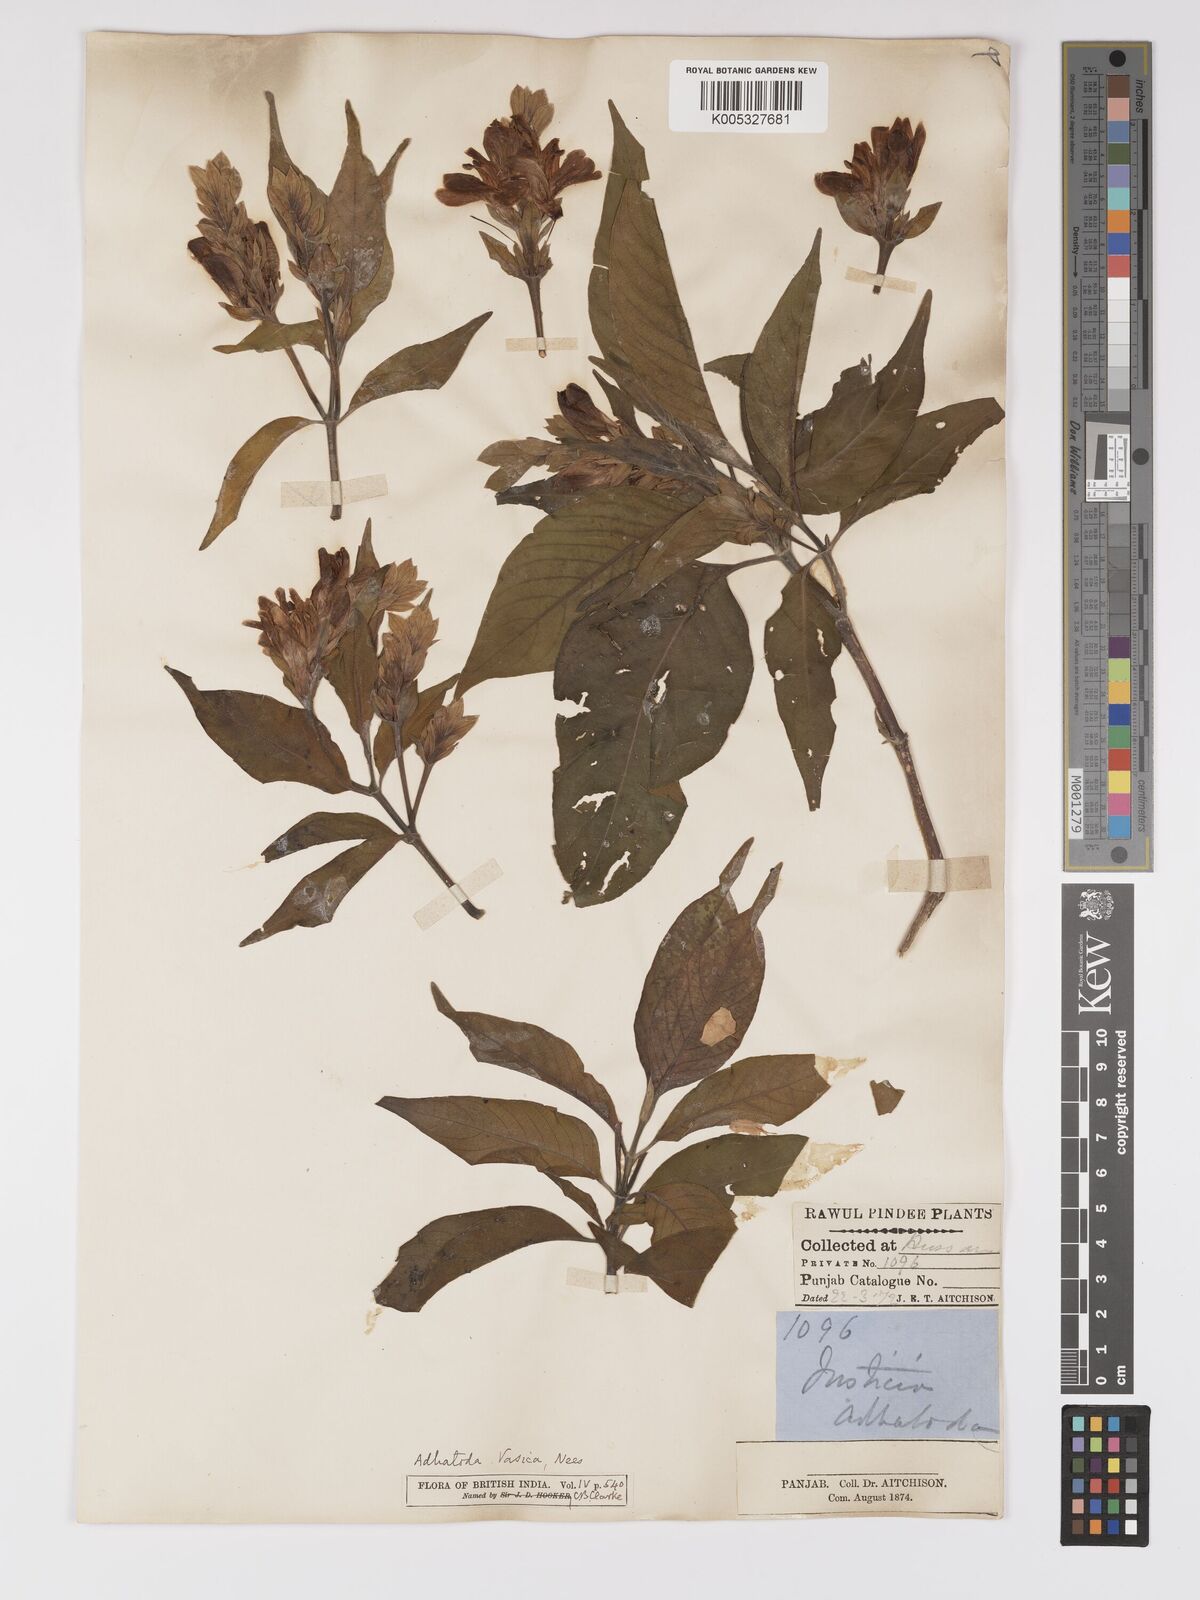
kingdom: Plantae
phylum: Tracheophyta
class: Magnoliopsida
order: Lamiales
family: Acanthaceae
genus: Ecbolium
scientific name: Ecbolium ligustrinum
